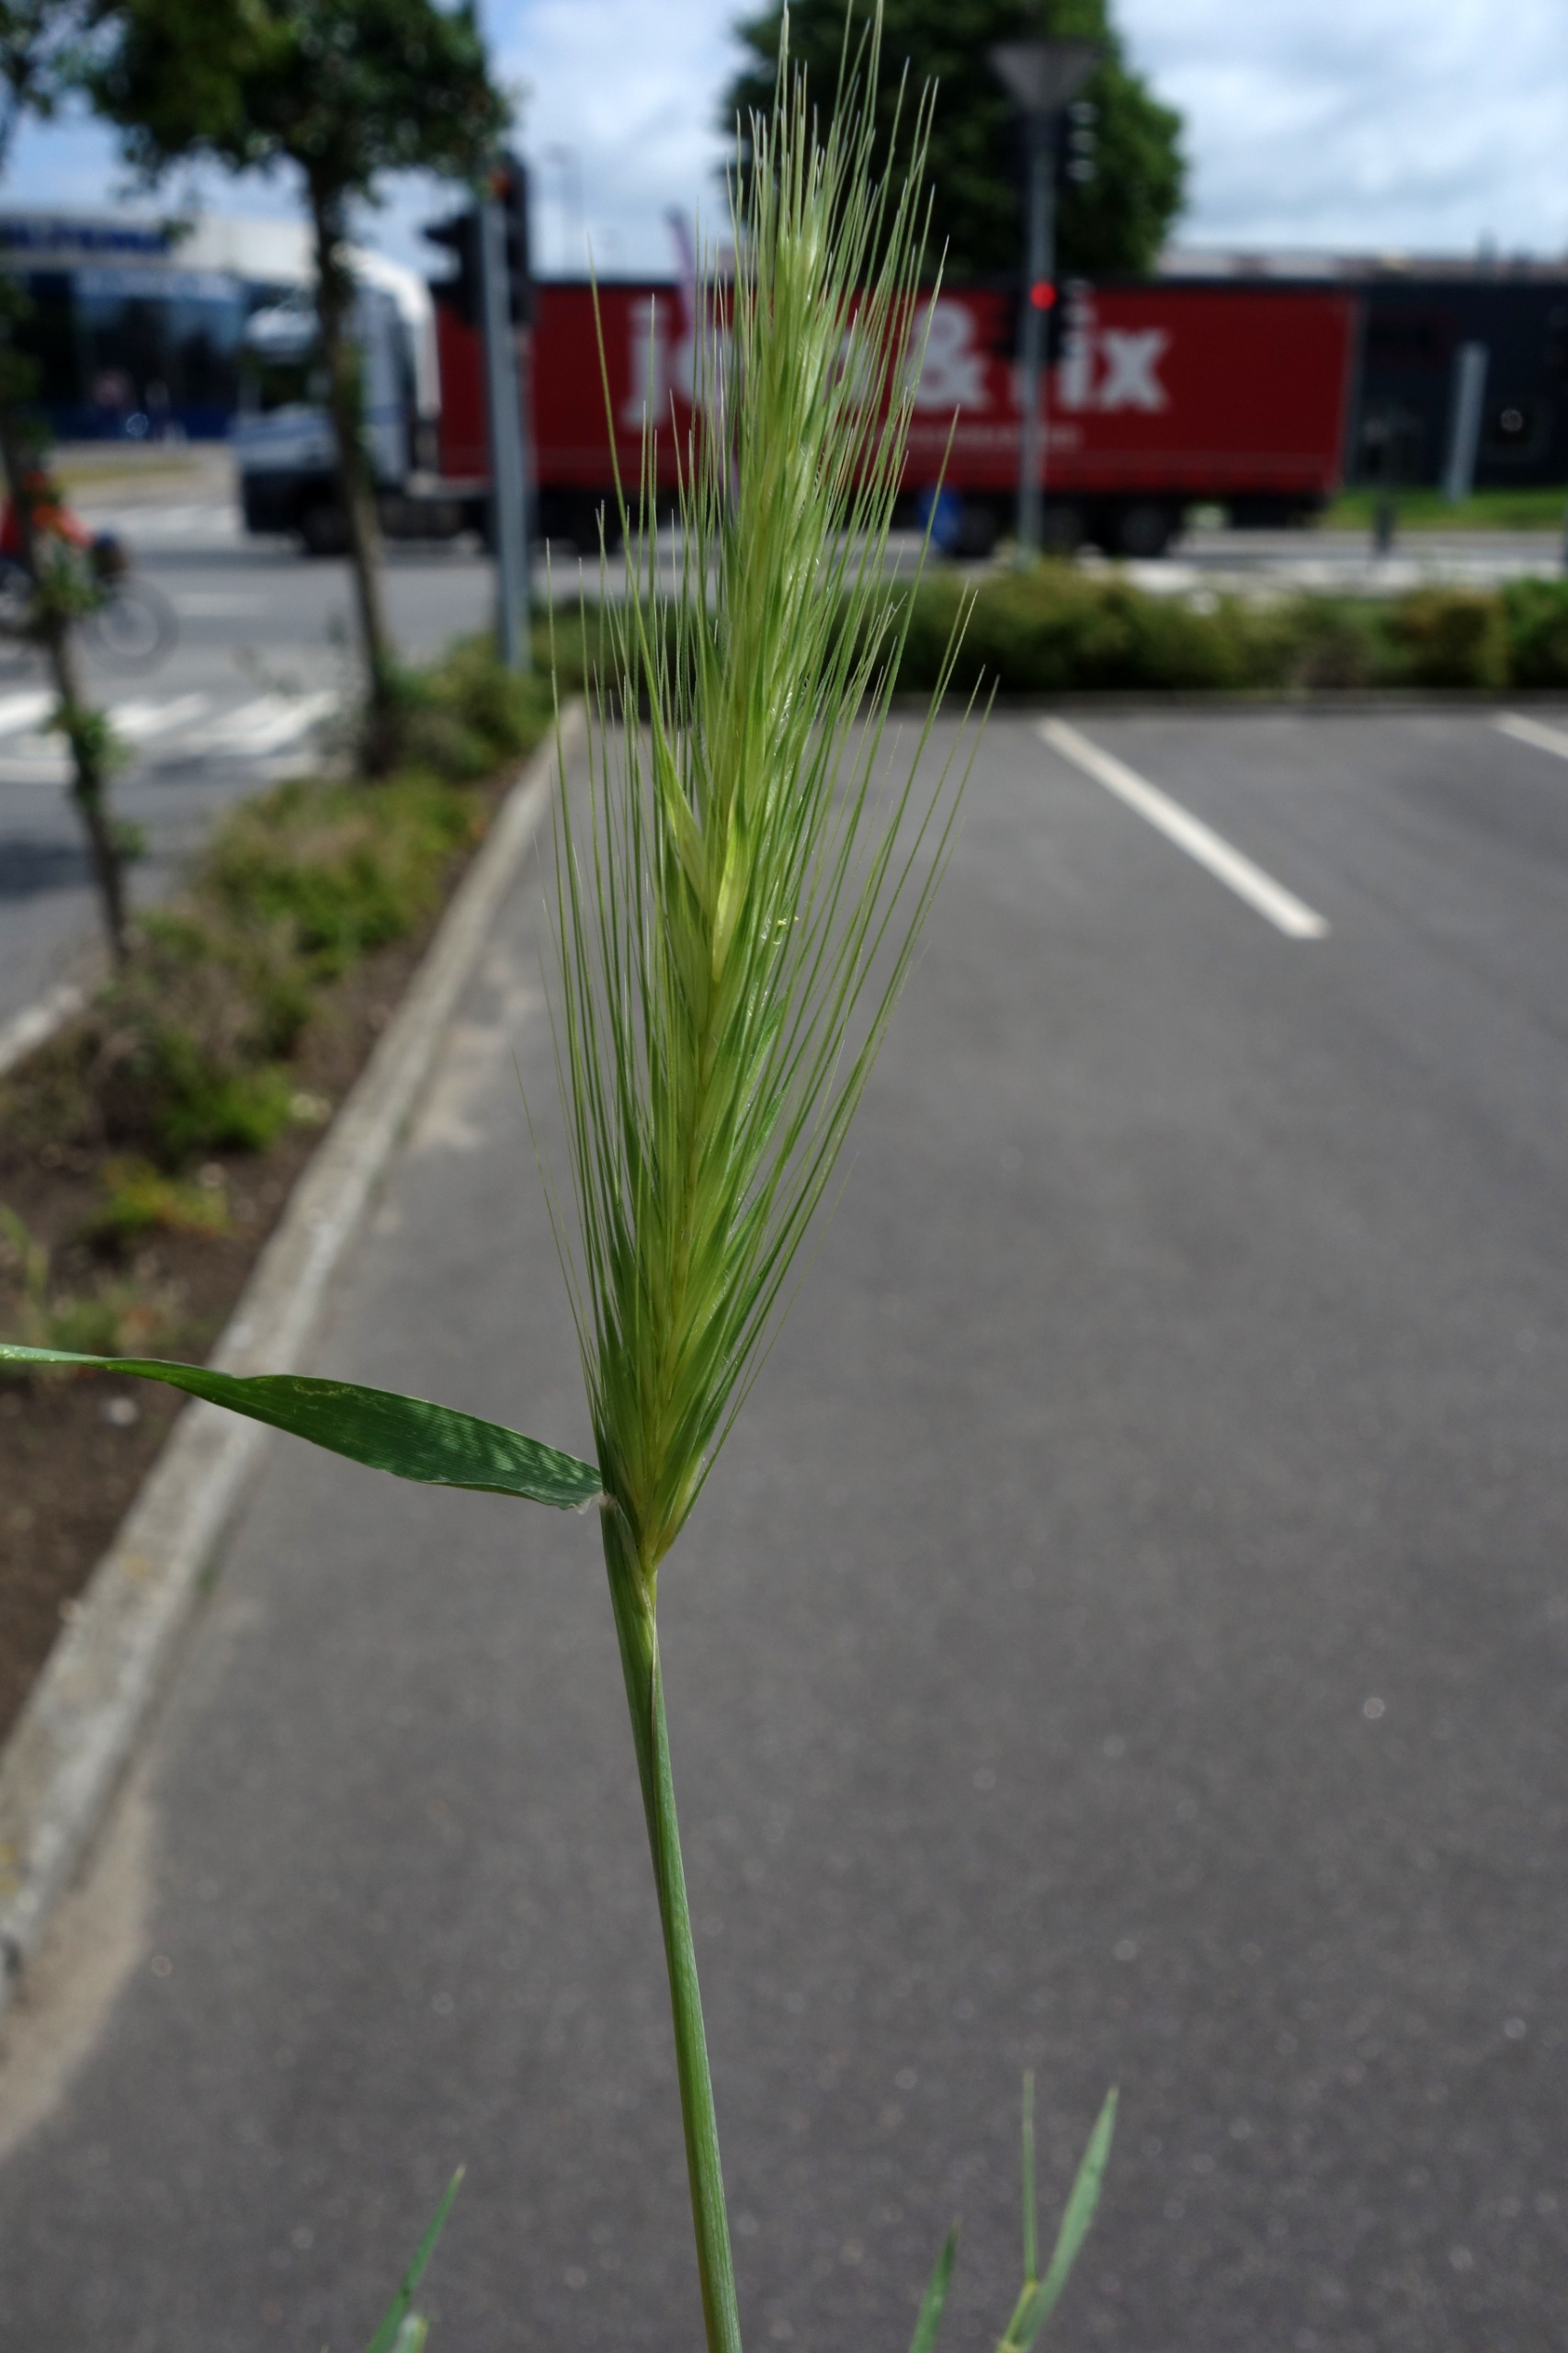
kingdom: Plantae
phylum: Tracheophyta
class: Liliopsida
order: Poales
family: Poaceae
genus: Hordeum
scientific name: Hordeum murinum
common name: Gold byg
